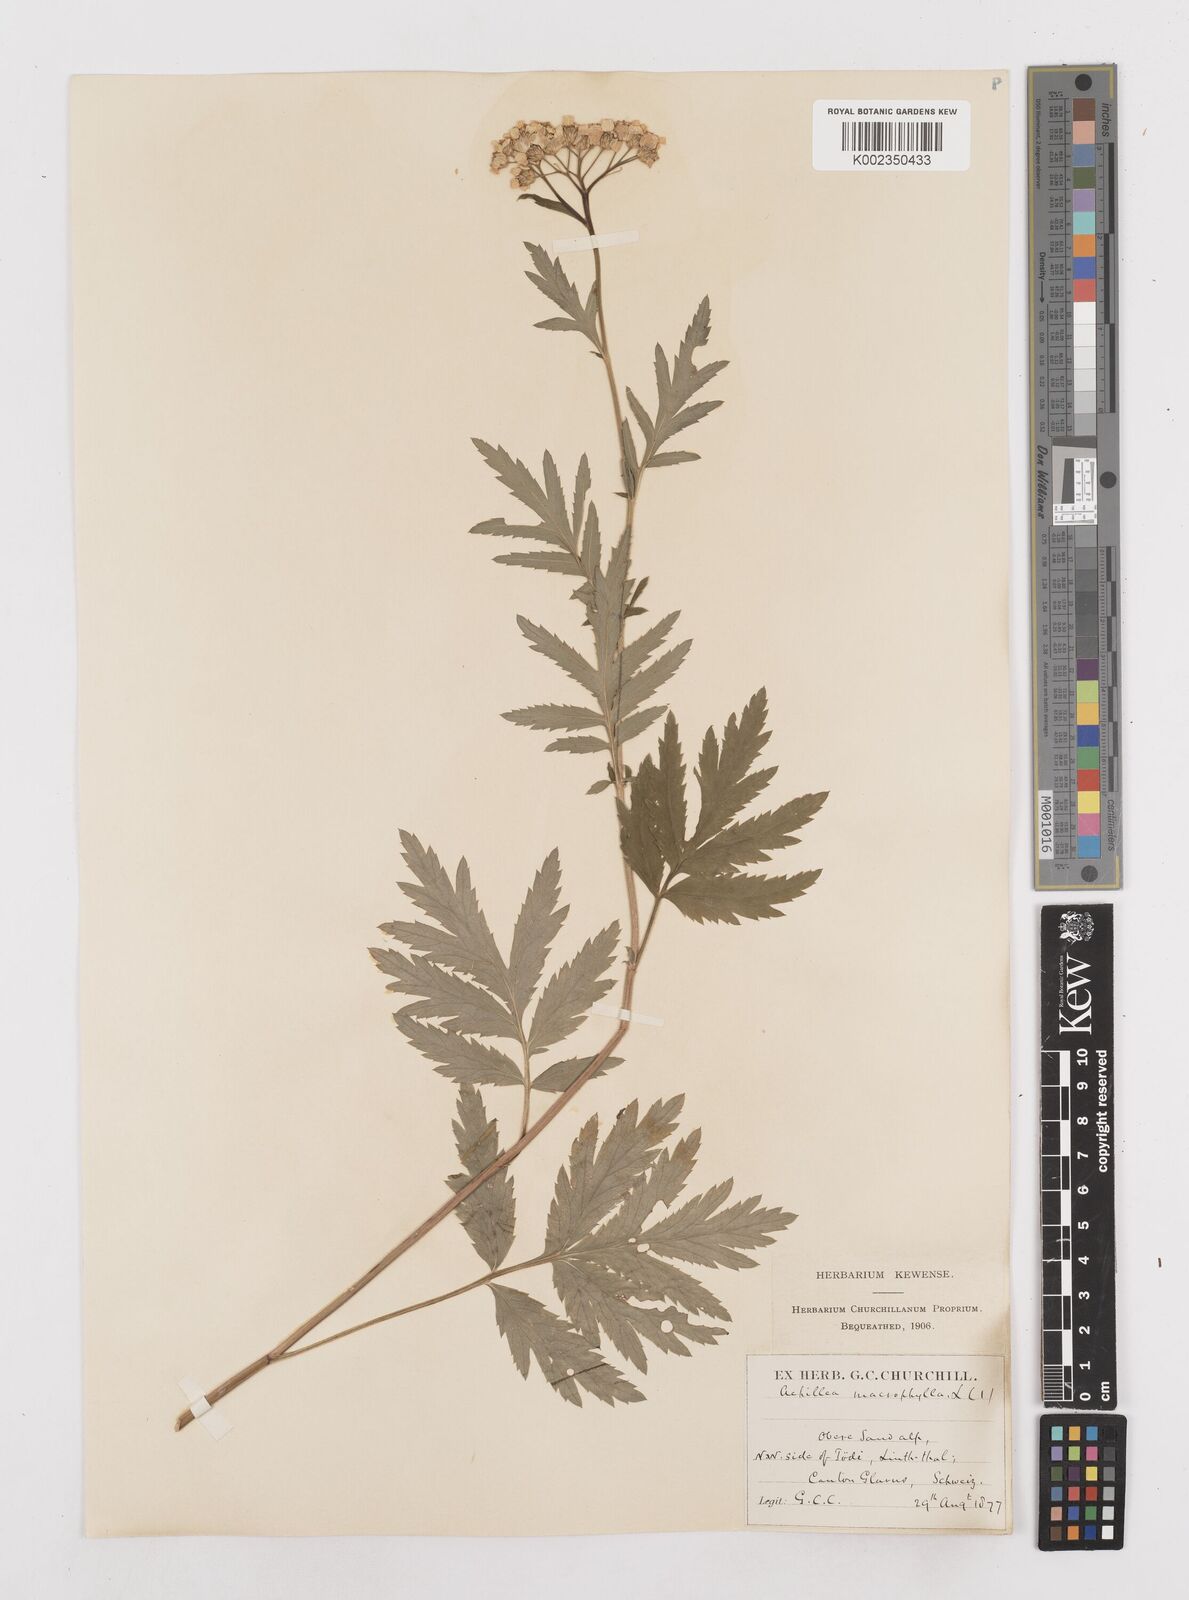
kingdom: Plantae
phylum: Tracheophyta
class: Magnoliopsida
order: Asterales
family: Asteraceae
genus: Achillea
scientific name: Achillea macrophylla
